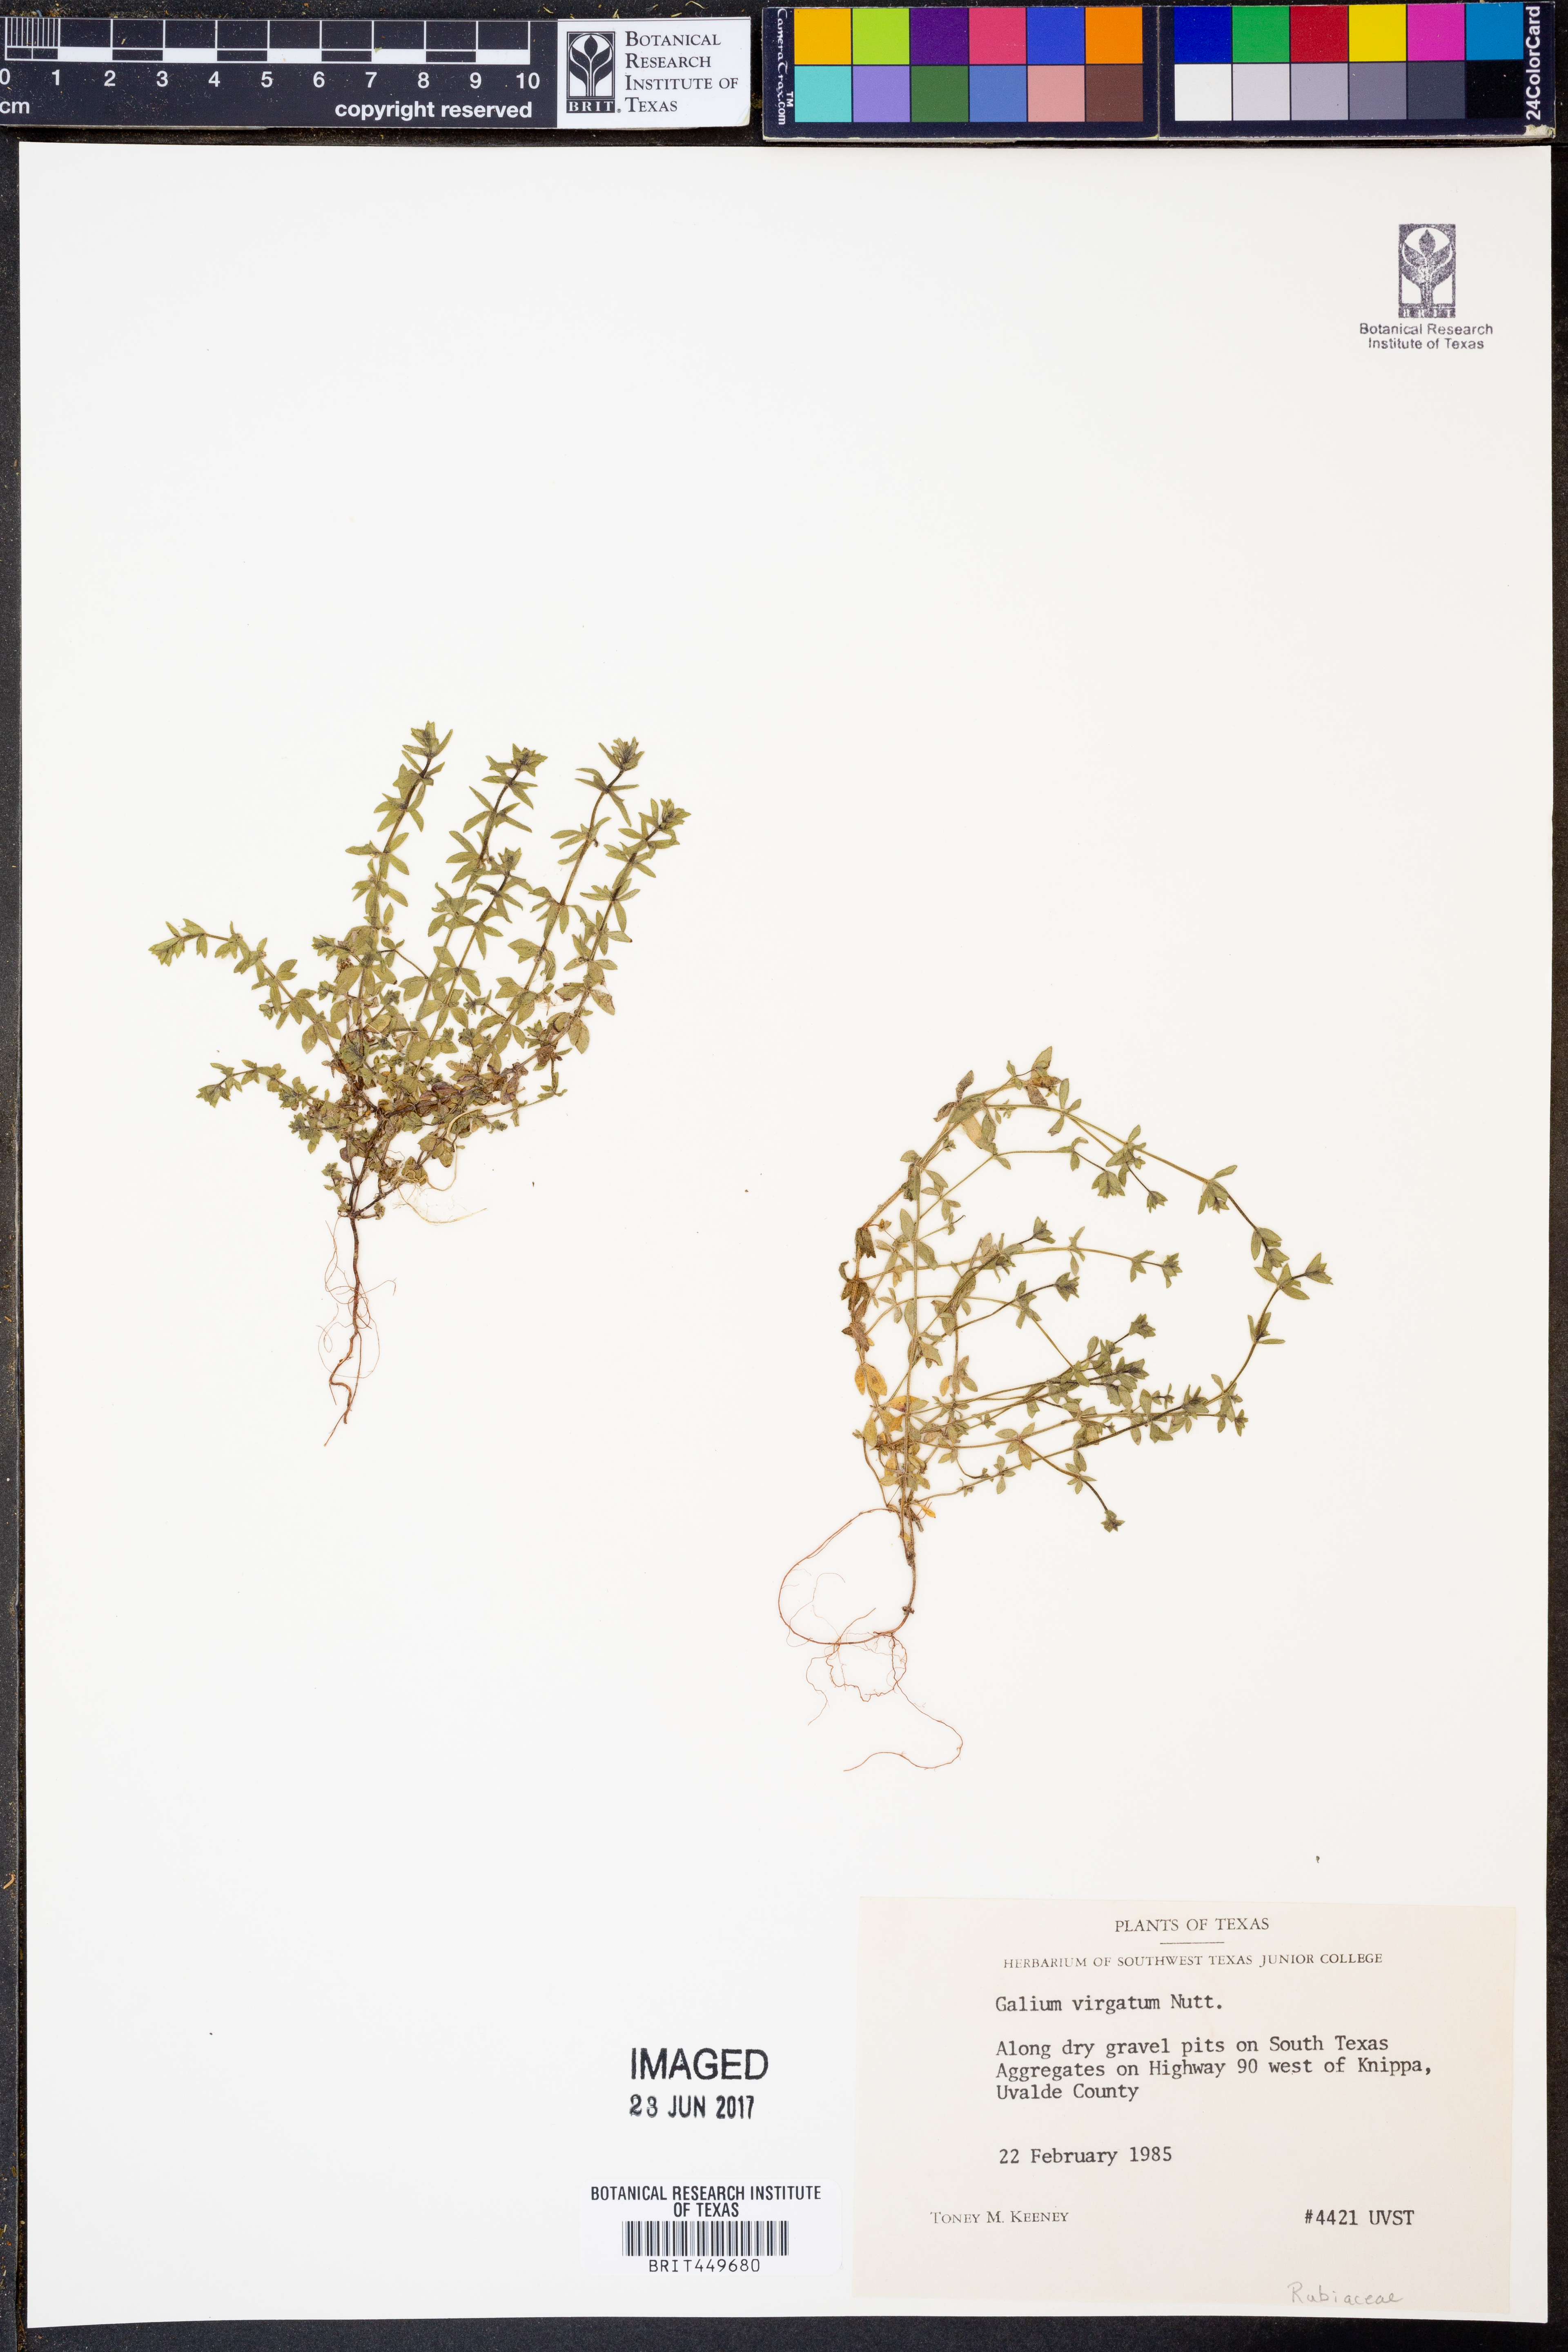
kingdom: Plantae
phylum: Tracheophyta
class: Magnoliopsida
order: Gentianales
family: Rubiaceae
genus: Galium
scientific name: Galium virgatum
